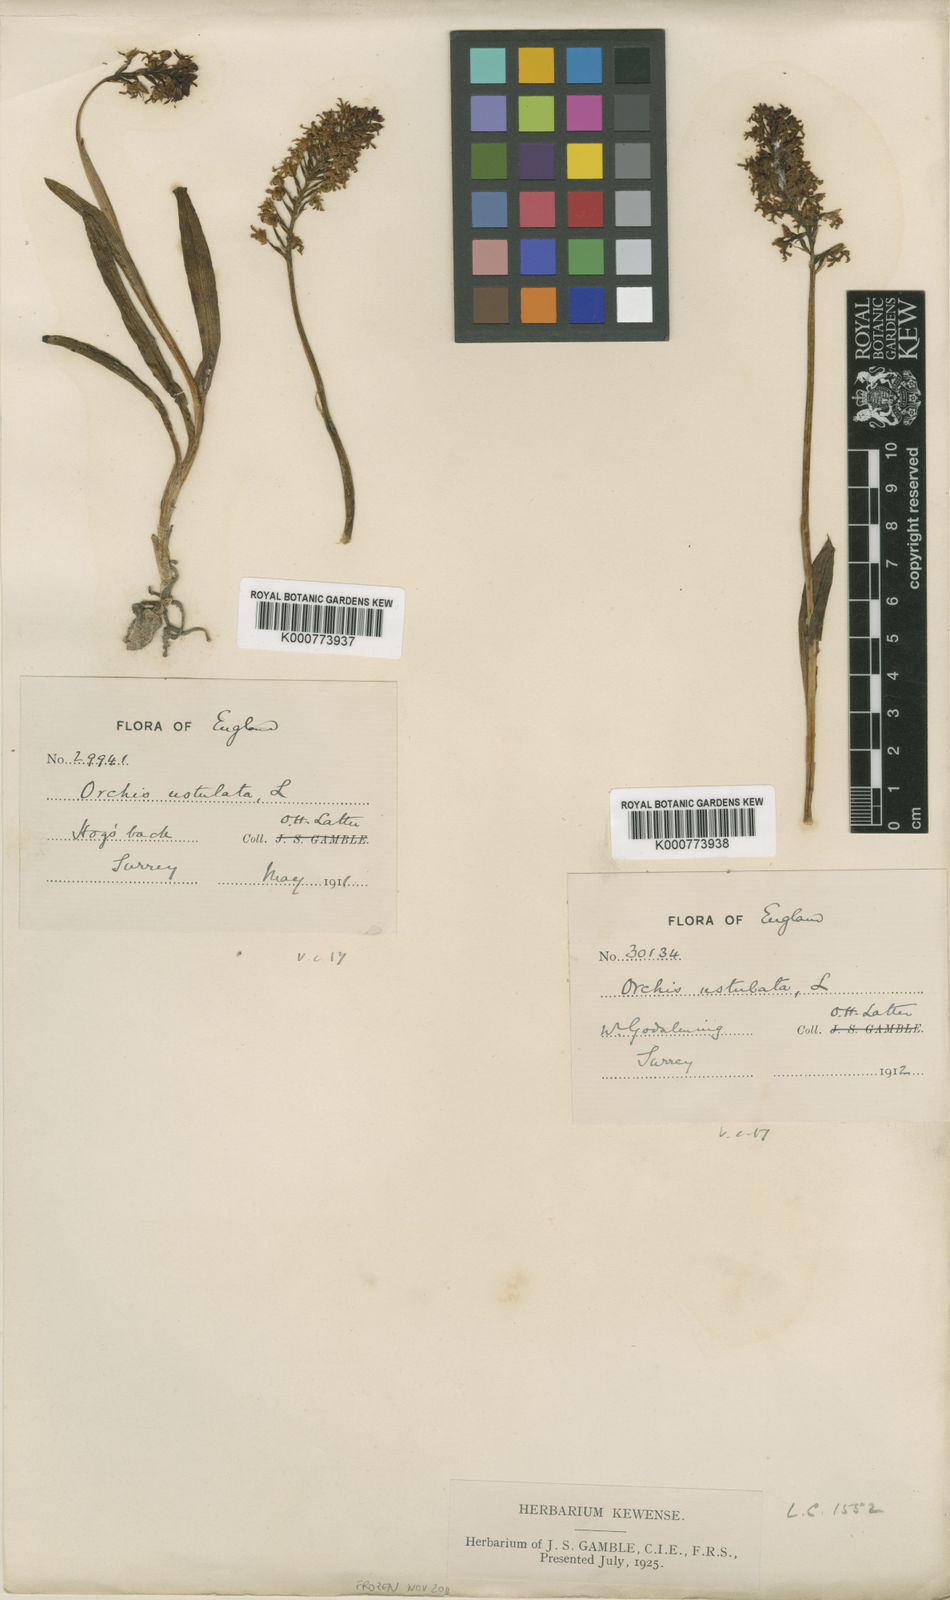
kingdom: Plantae
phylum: Tracheophyta
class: Liliopsida
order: Asparagales
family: Orchidaceae
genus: Neotinea
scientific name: Neotinea ustulata
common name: Burnt orchid
